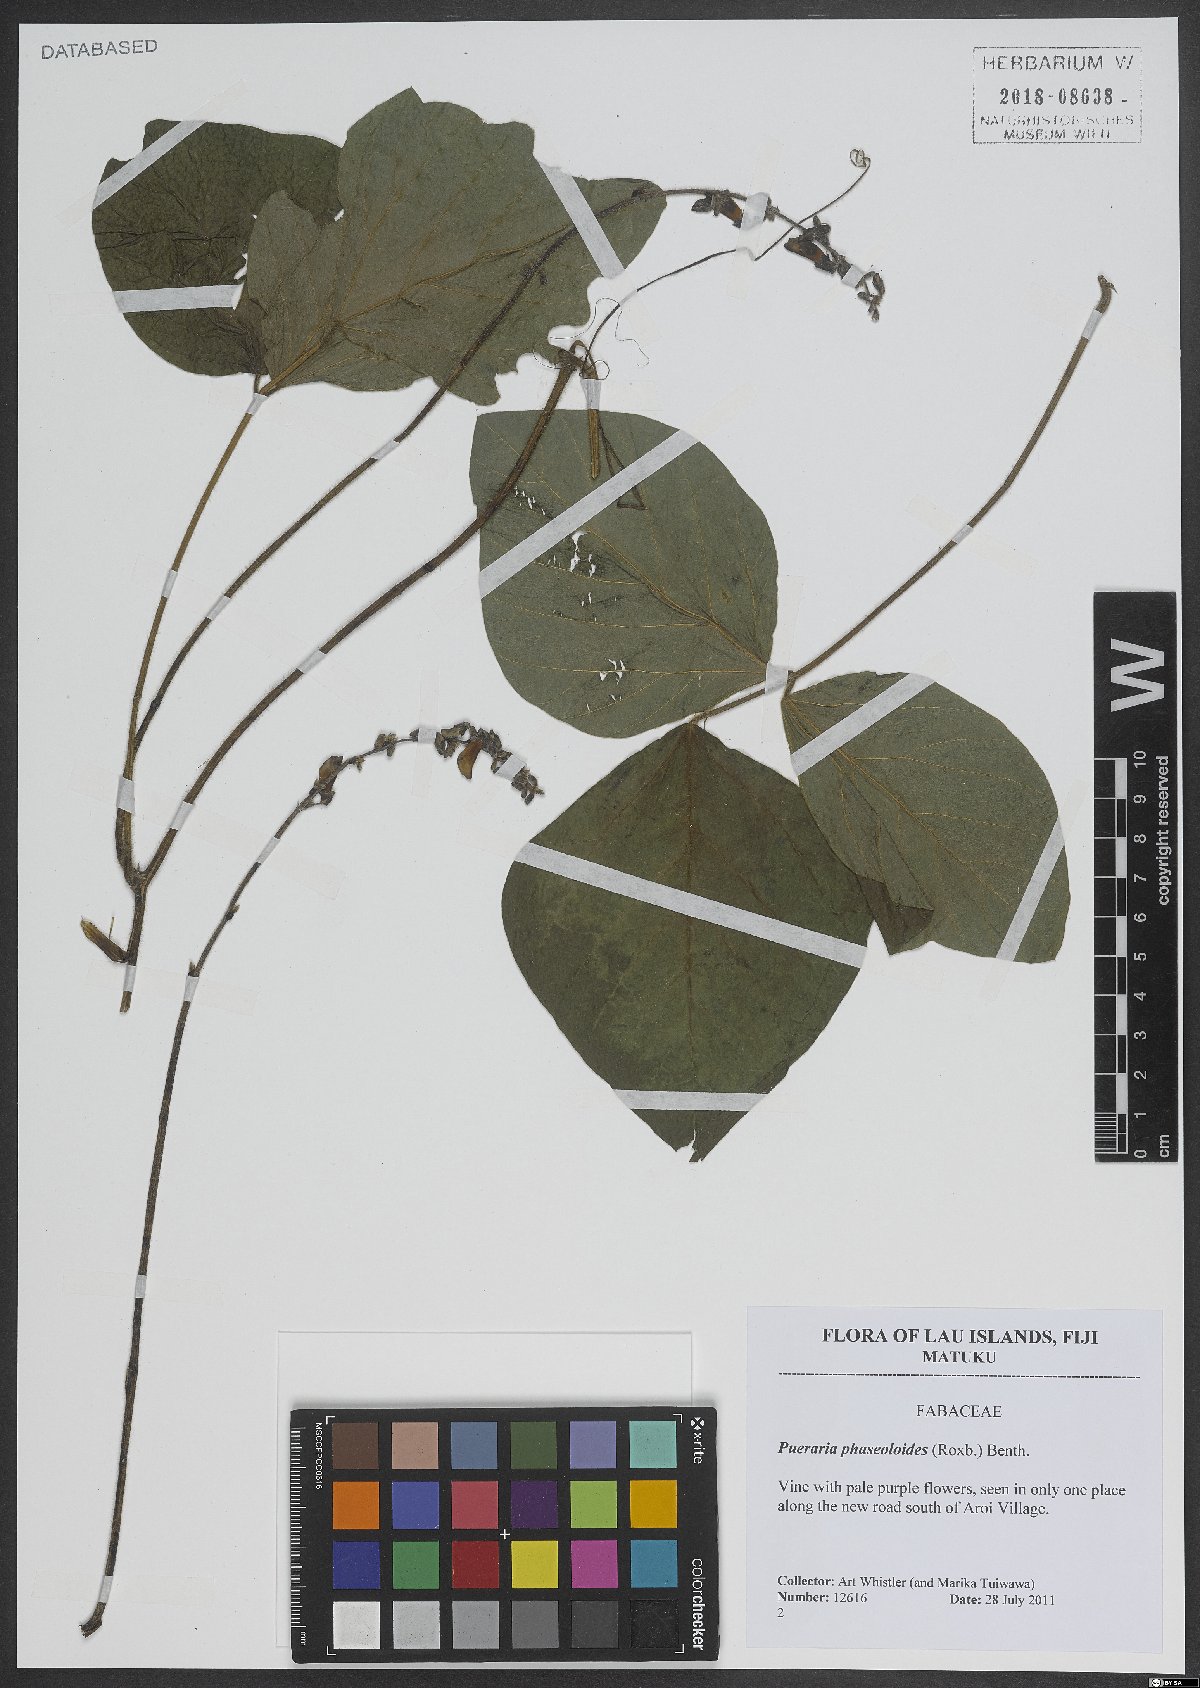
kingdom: Plantae
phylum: Tracheophyta
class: Magnoliopsida
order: Fabales
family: Fabaceae
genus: Neustanthus
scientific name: Neustanthus phaseoloides
